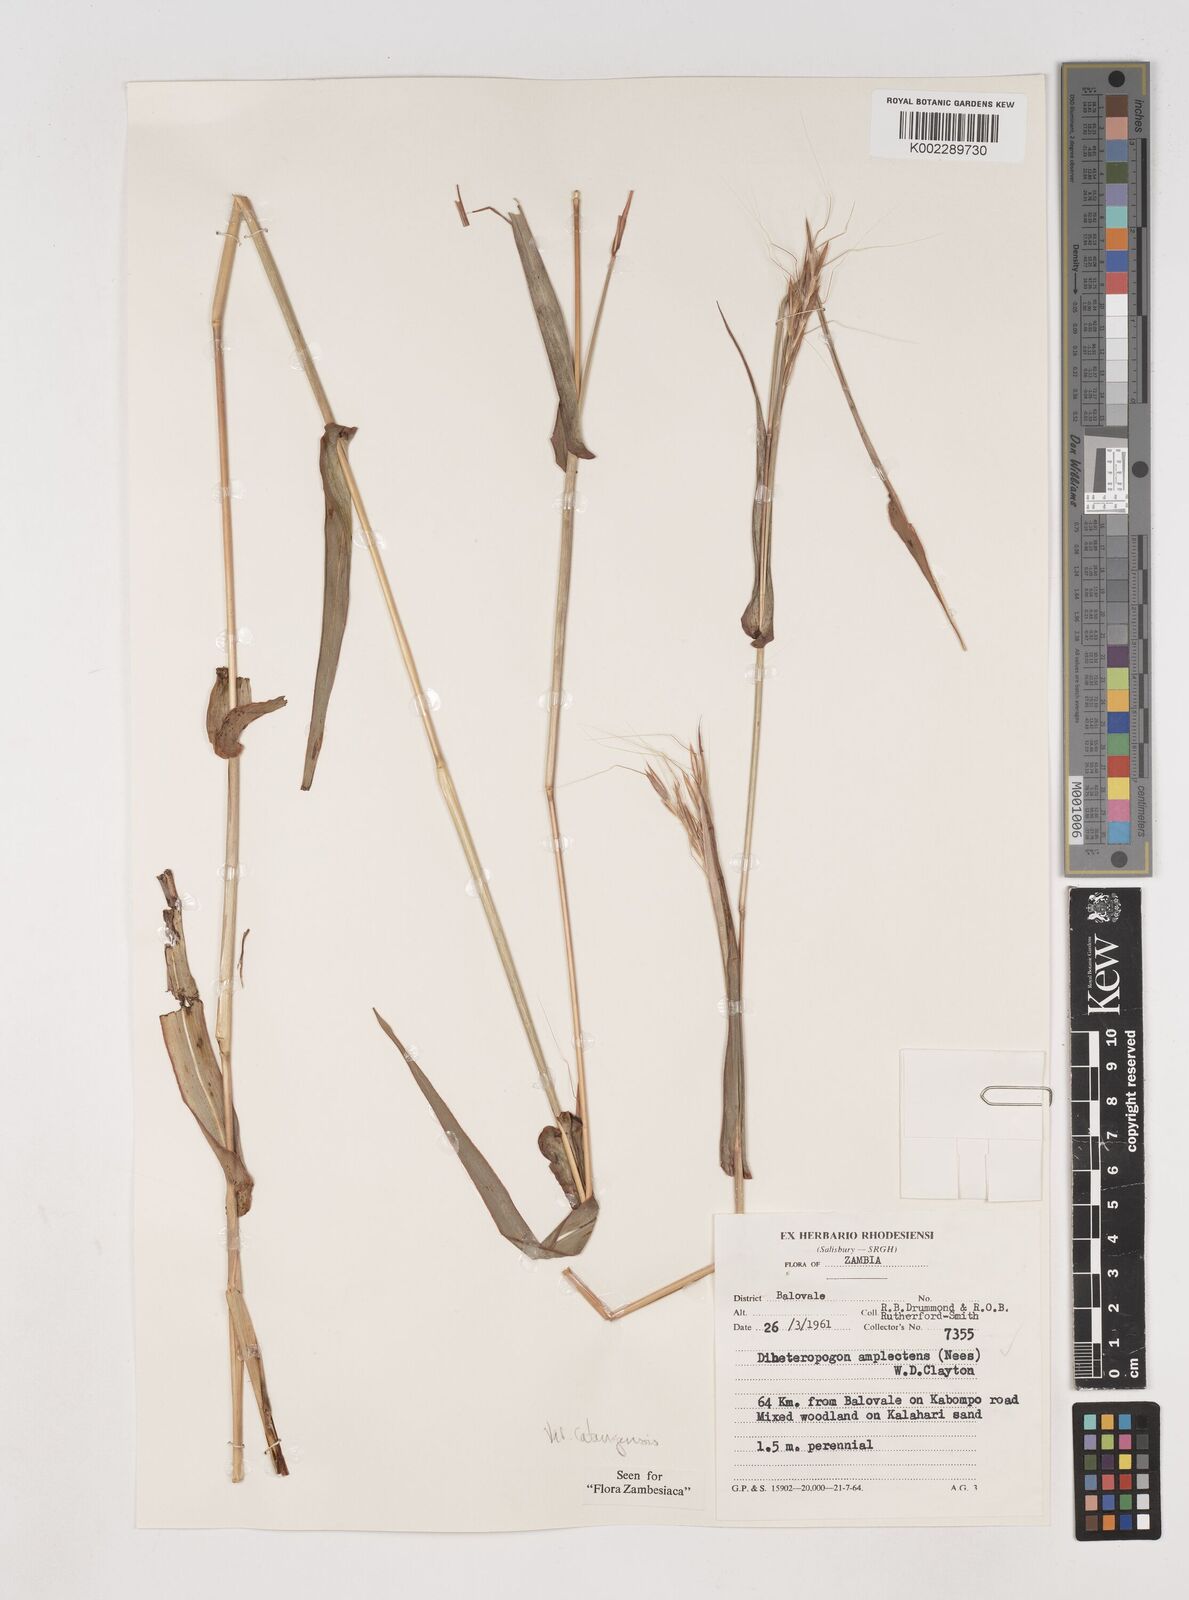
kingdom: Plantae
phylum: Tracheophyta
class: Liliopsida
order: Poales
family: Poaceae
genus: Diheteropogon
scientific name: Diheteropogon amplectens
